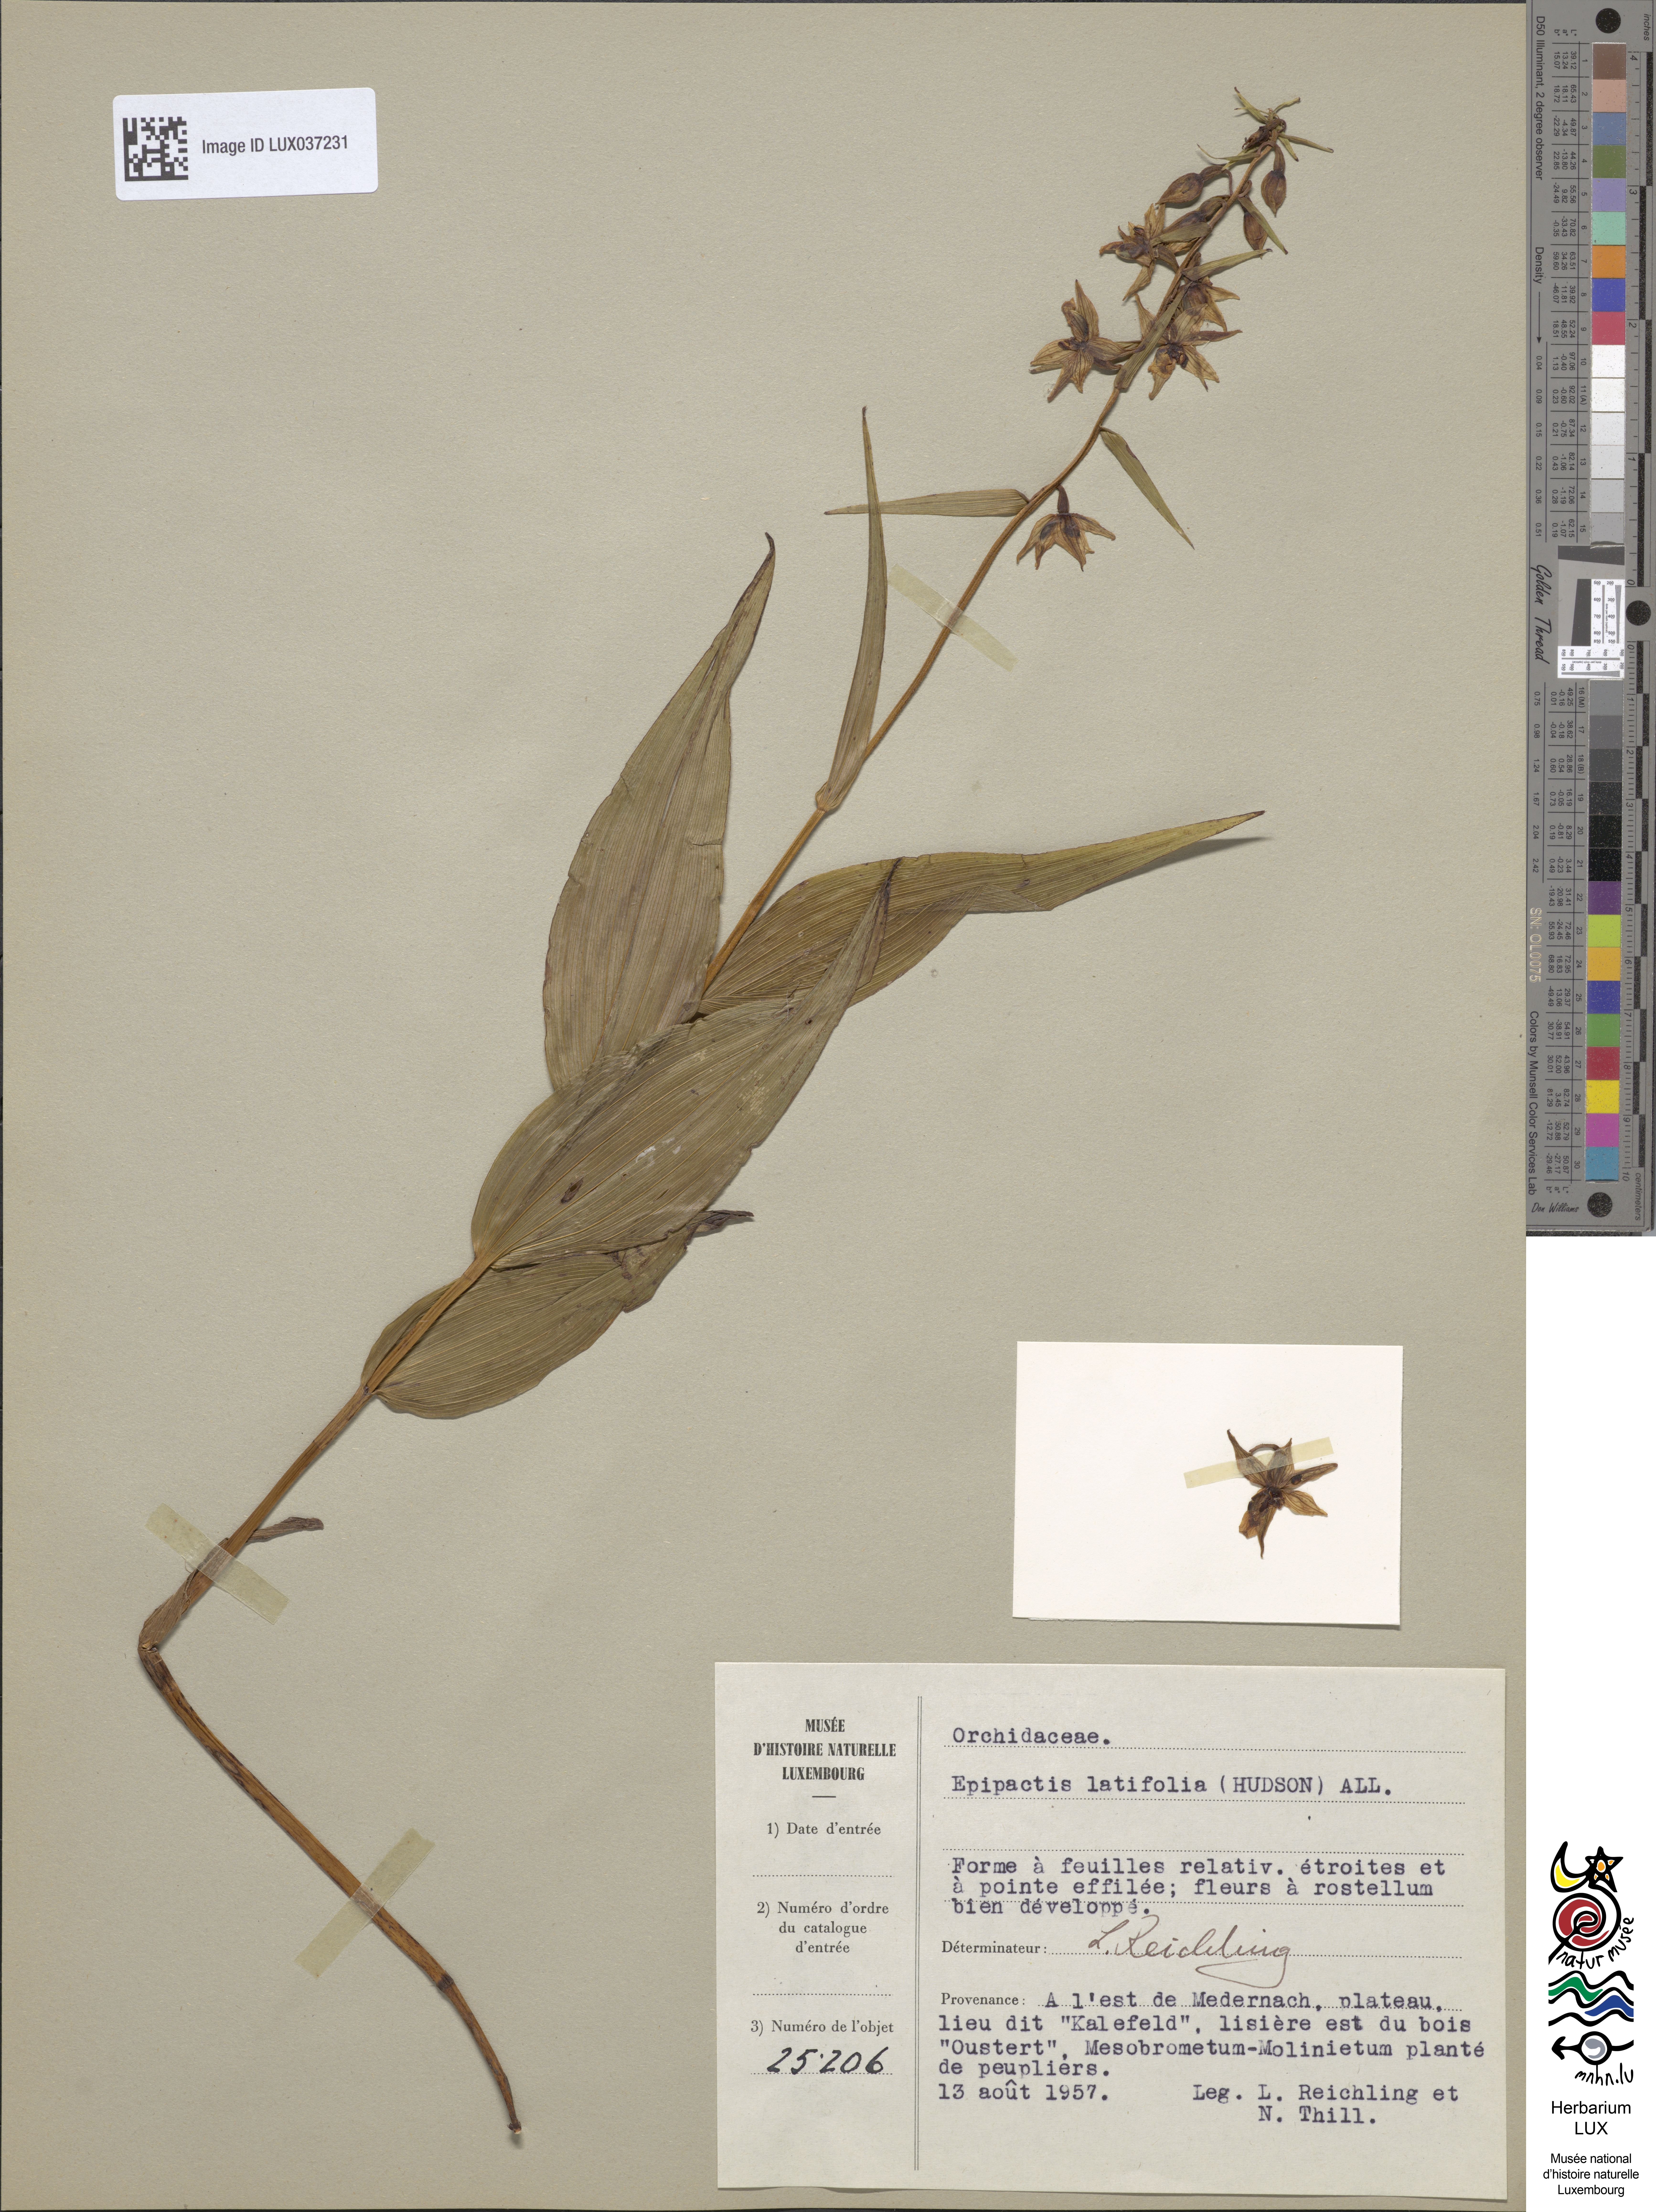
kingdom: Plantae
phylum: Tracheophyta
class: Liliopsida
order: Asparagales
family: Orchidaceae
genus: Epipactis
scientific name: Epipactis helleborine
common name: Broad-leaved helleborine
